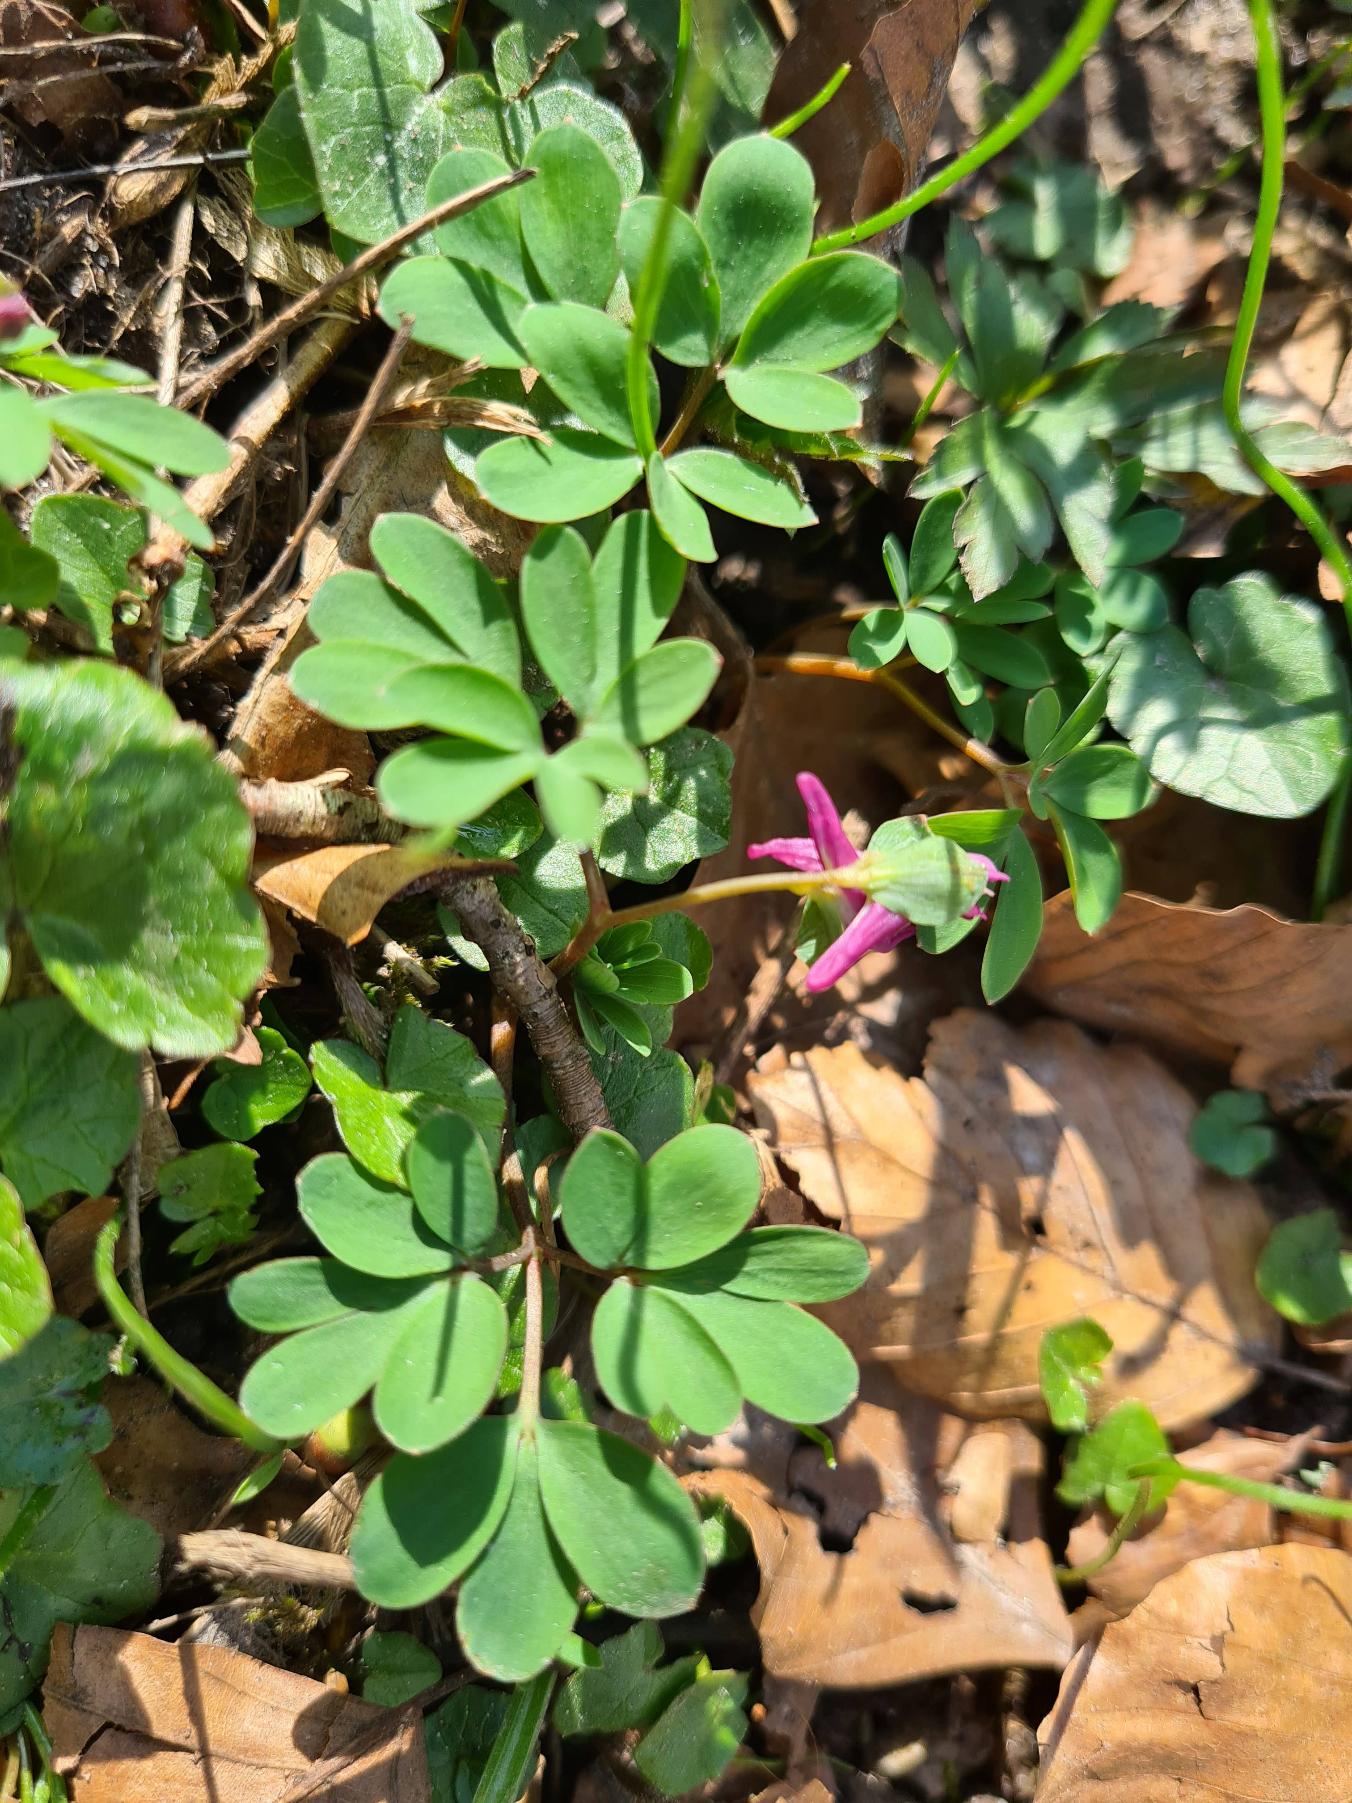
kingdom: Plantae
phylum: Tracheophyta
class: Magnoliopsida
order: Ranunculales
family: Papaveraceae
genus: Corydalis
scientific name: Corydalis intermedia
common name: Liden lærkespore
